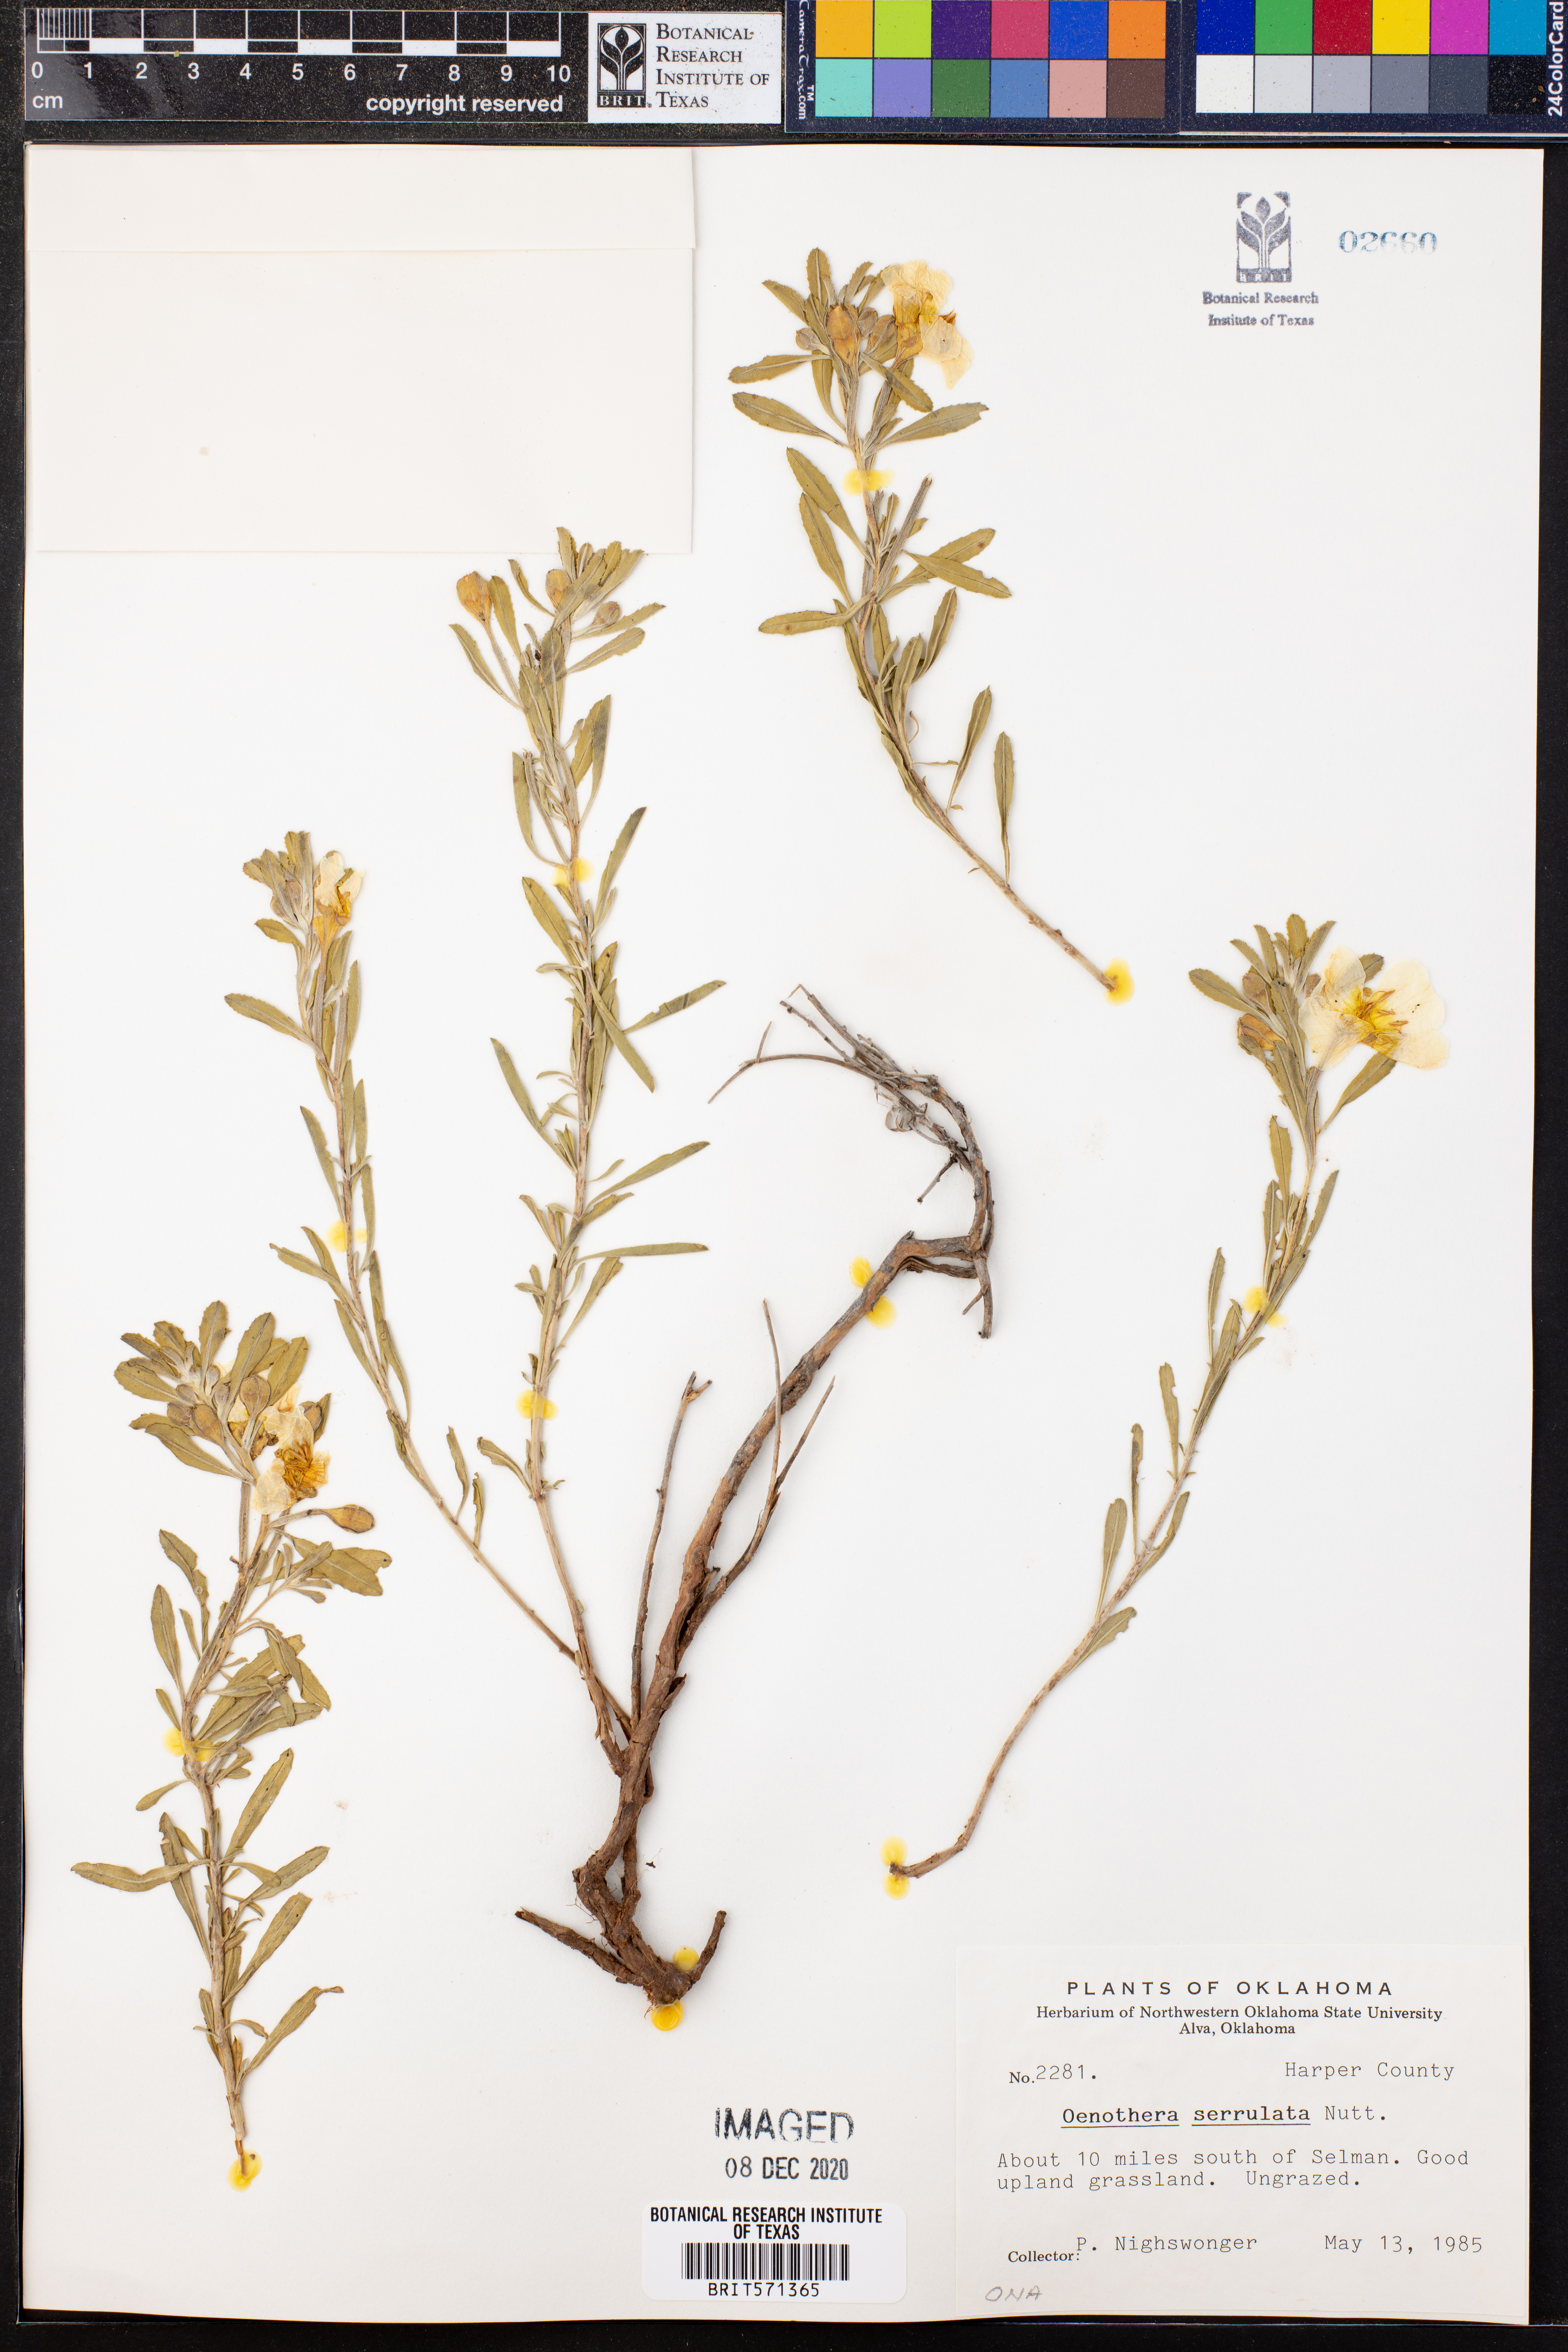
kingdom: Plantae
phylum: Tracheophyta
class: Magnoliopsida
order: Myrtales
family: Onagraceae
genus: Oenothera
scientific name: Oenothera serrulata
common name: Half-shrub calylophus
